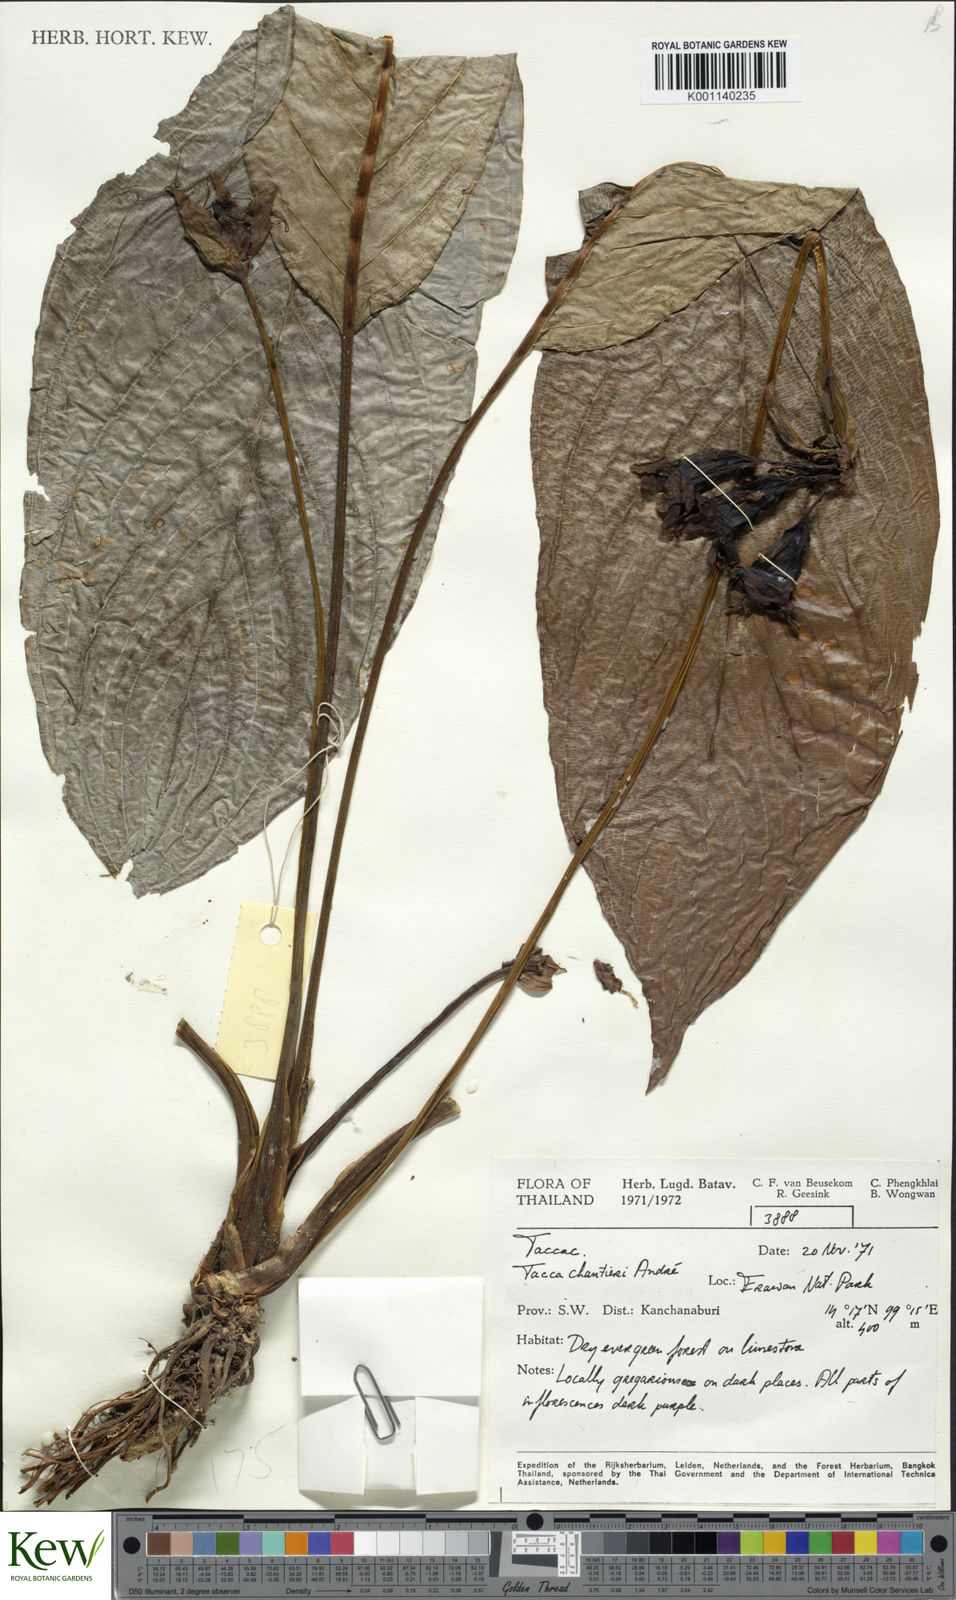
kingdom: Plantae
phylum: Tracheophyta
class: Liliopsida
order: Dioscoreales
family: Dioscoreaceae
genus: Tacca
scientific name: Tacca
